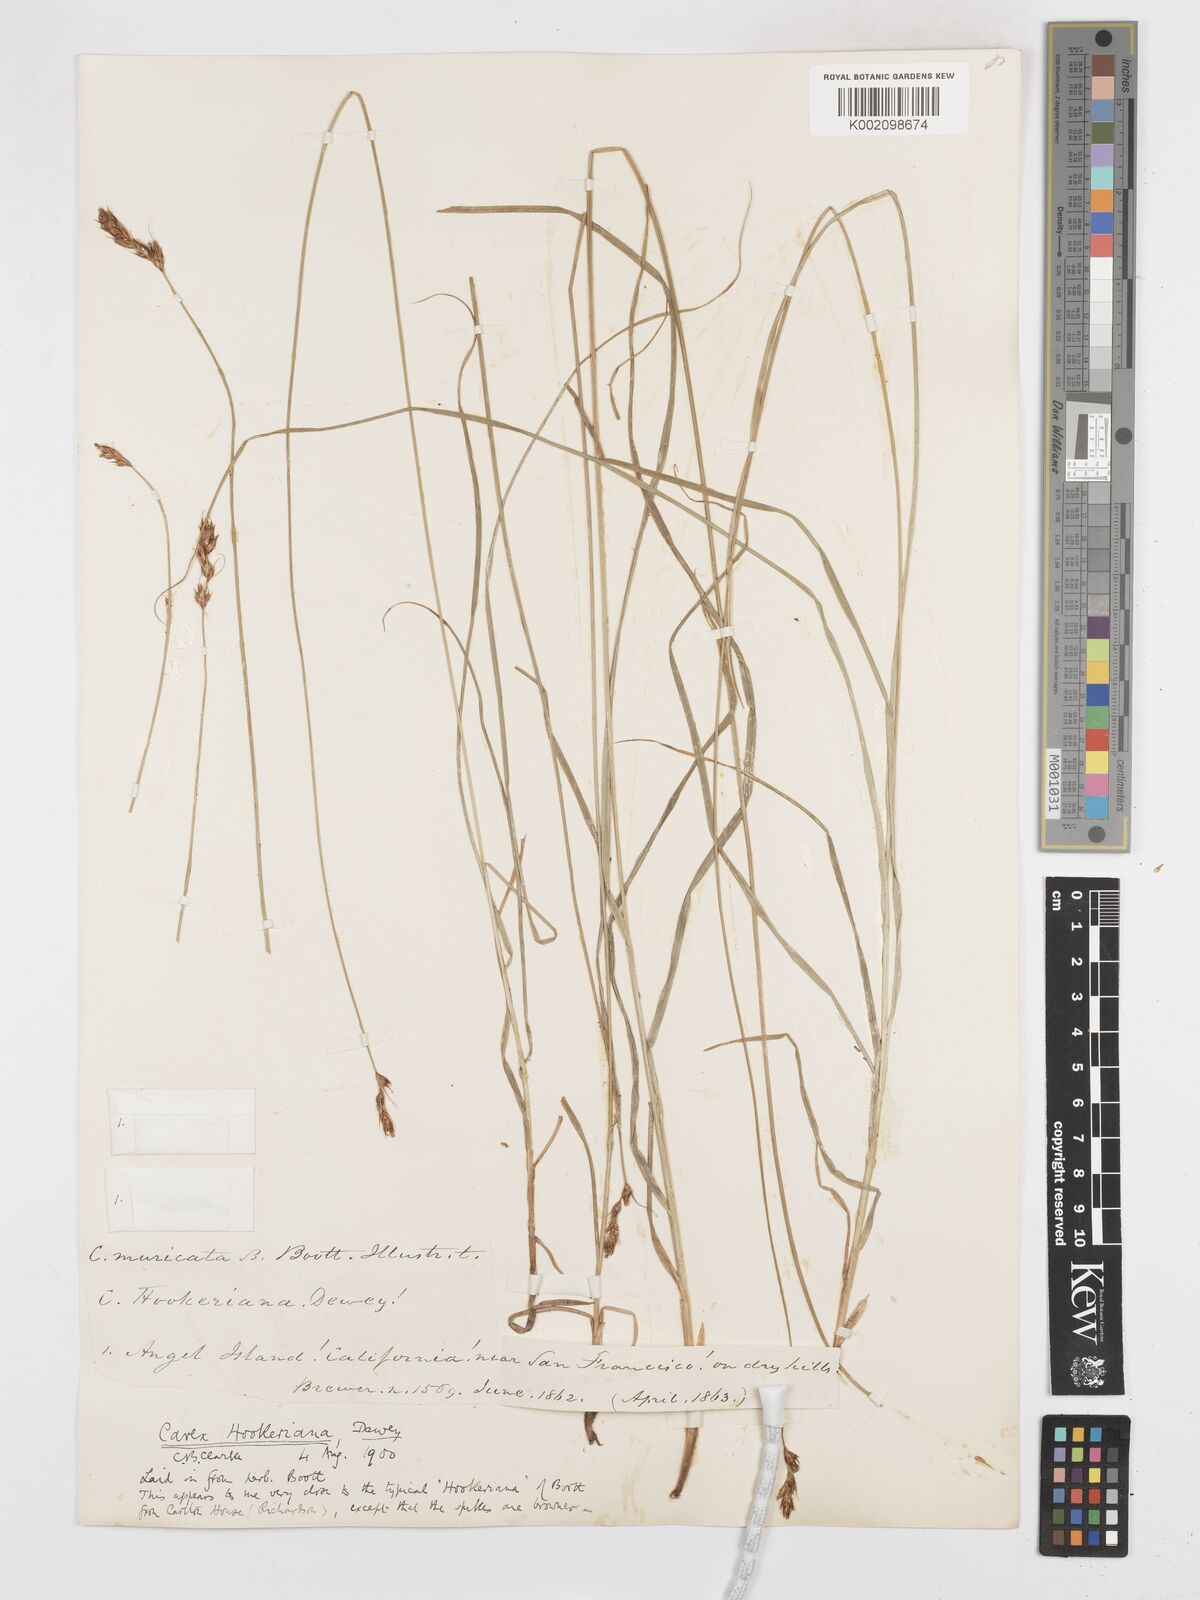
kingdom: Plantae
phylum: Tracheophyta
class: Liliopsida
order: Poales
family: Cyperaceae
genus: Carex
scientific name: Carex tumulicola
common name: Splitawn sedge
